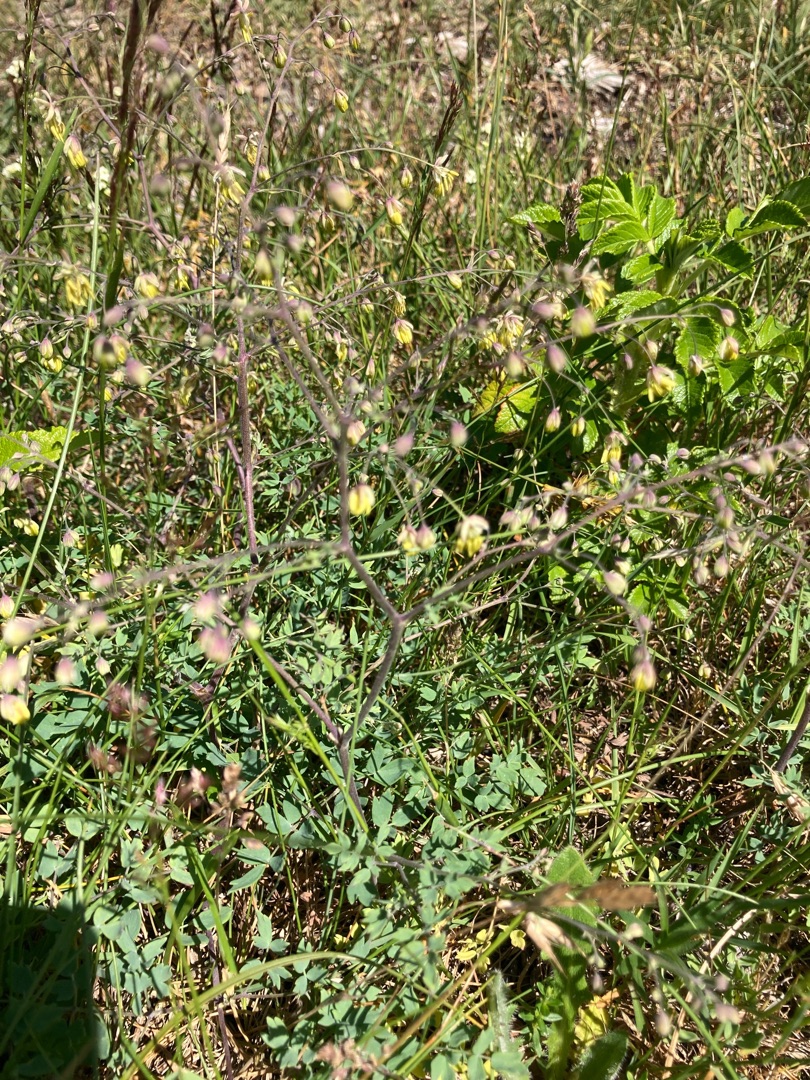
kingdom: Plantae
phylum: Tracheophyta
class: Magnoliopsida
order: Ranunculales
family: Ranunculaceae
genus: Thalictrum
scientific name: Thalictrum minus
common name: Sand-frøstjerne
